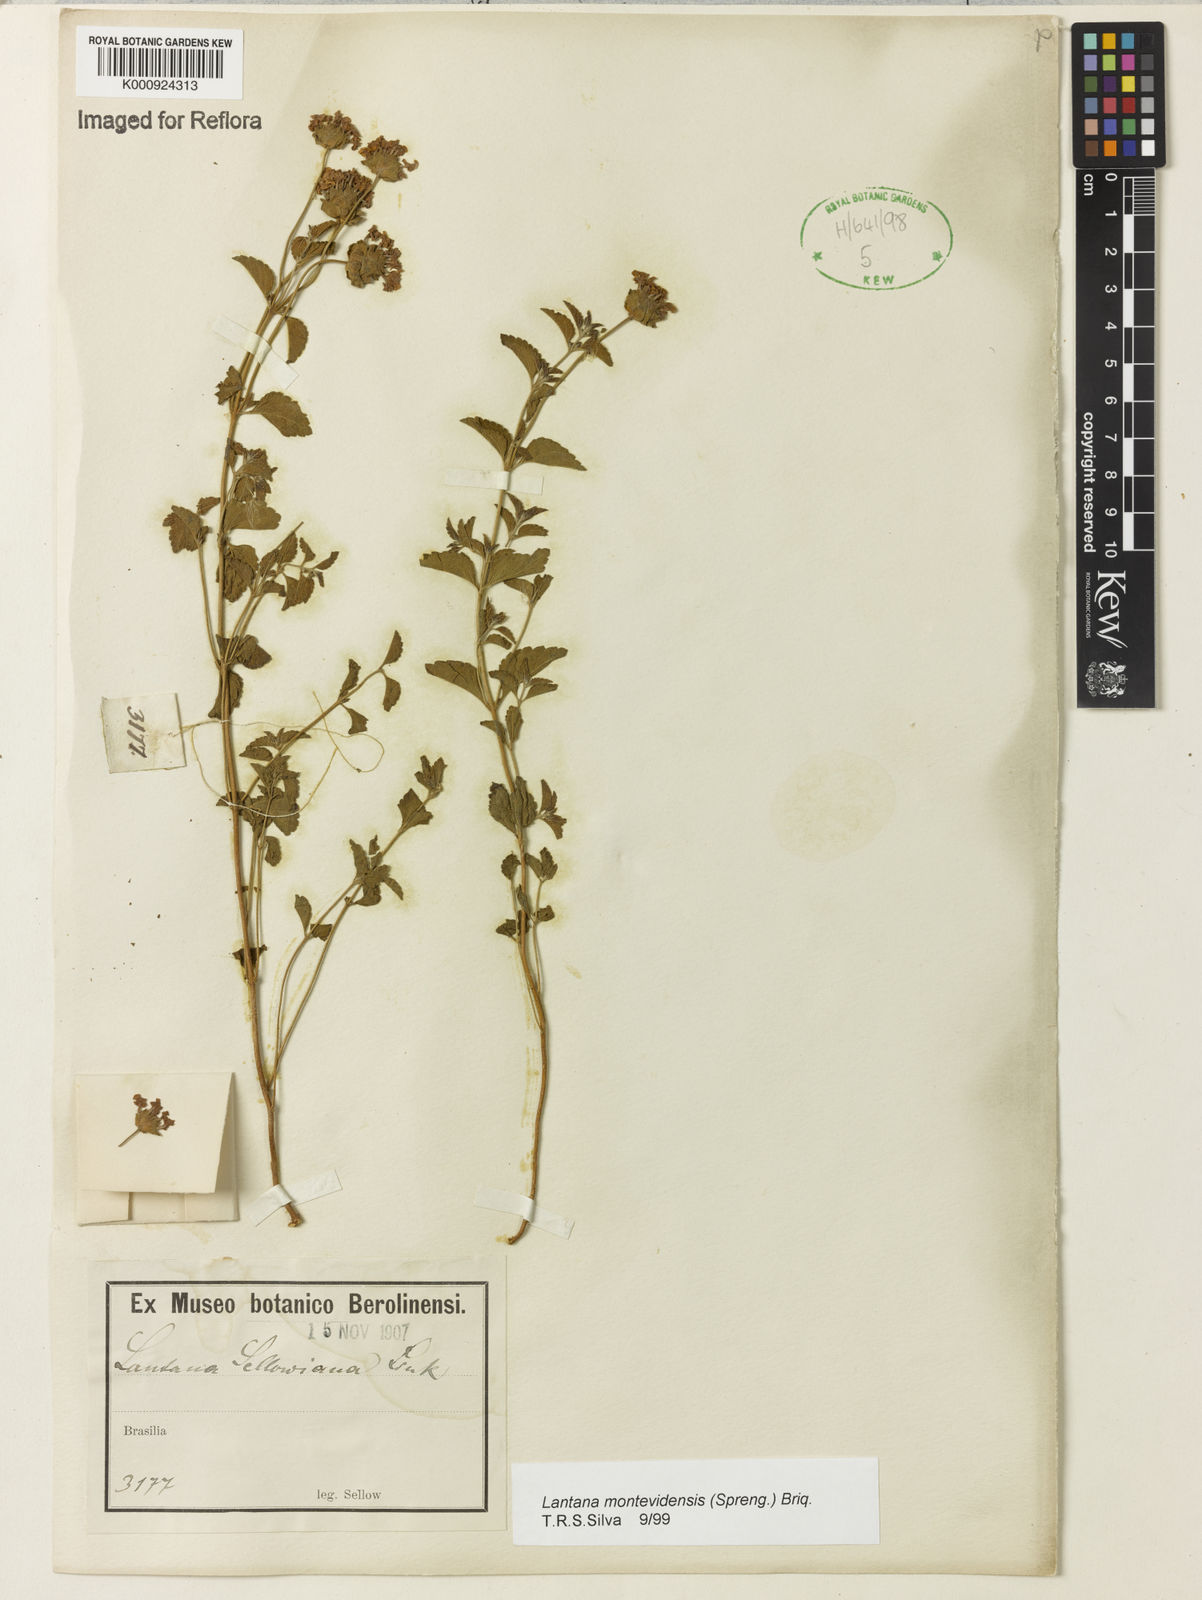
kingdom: Plantae
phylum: Tracheophyta
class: Magnoliopsida
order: Lamiales
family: Verbenaceae
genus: Lantana
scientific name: Lantana montevidensis
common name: Trailing shrubverbena
